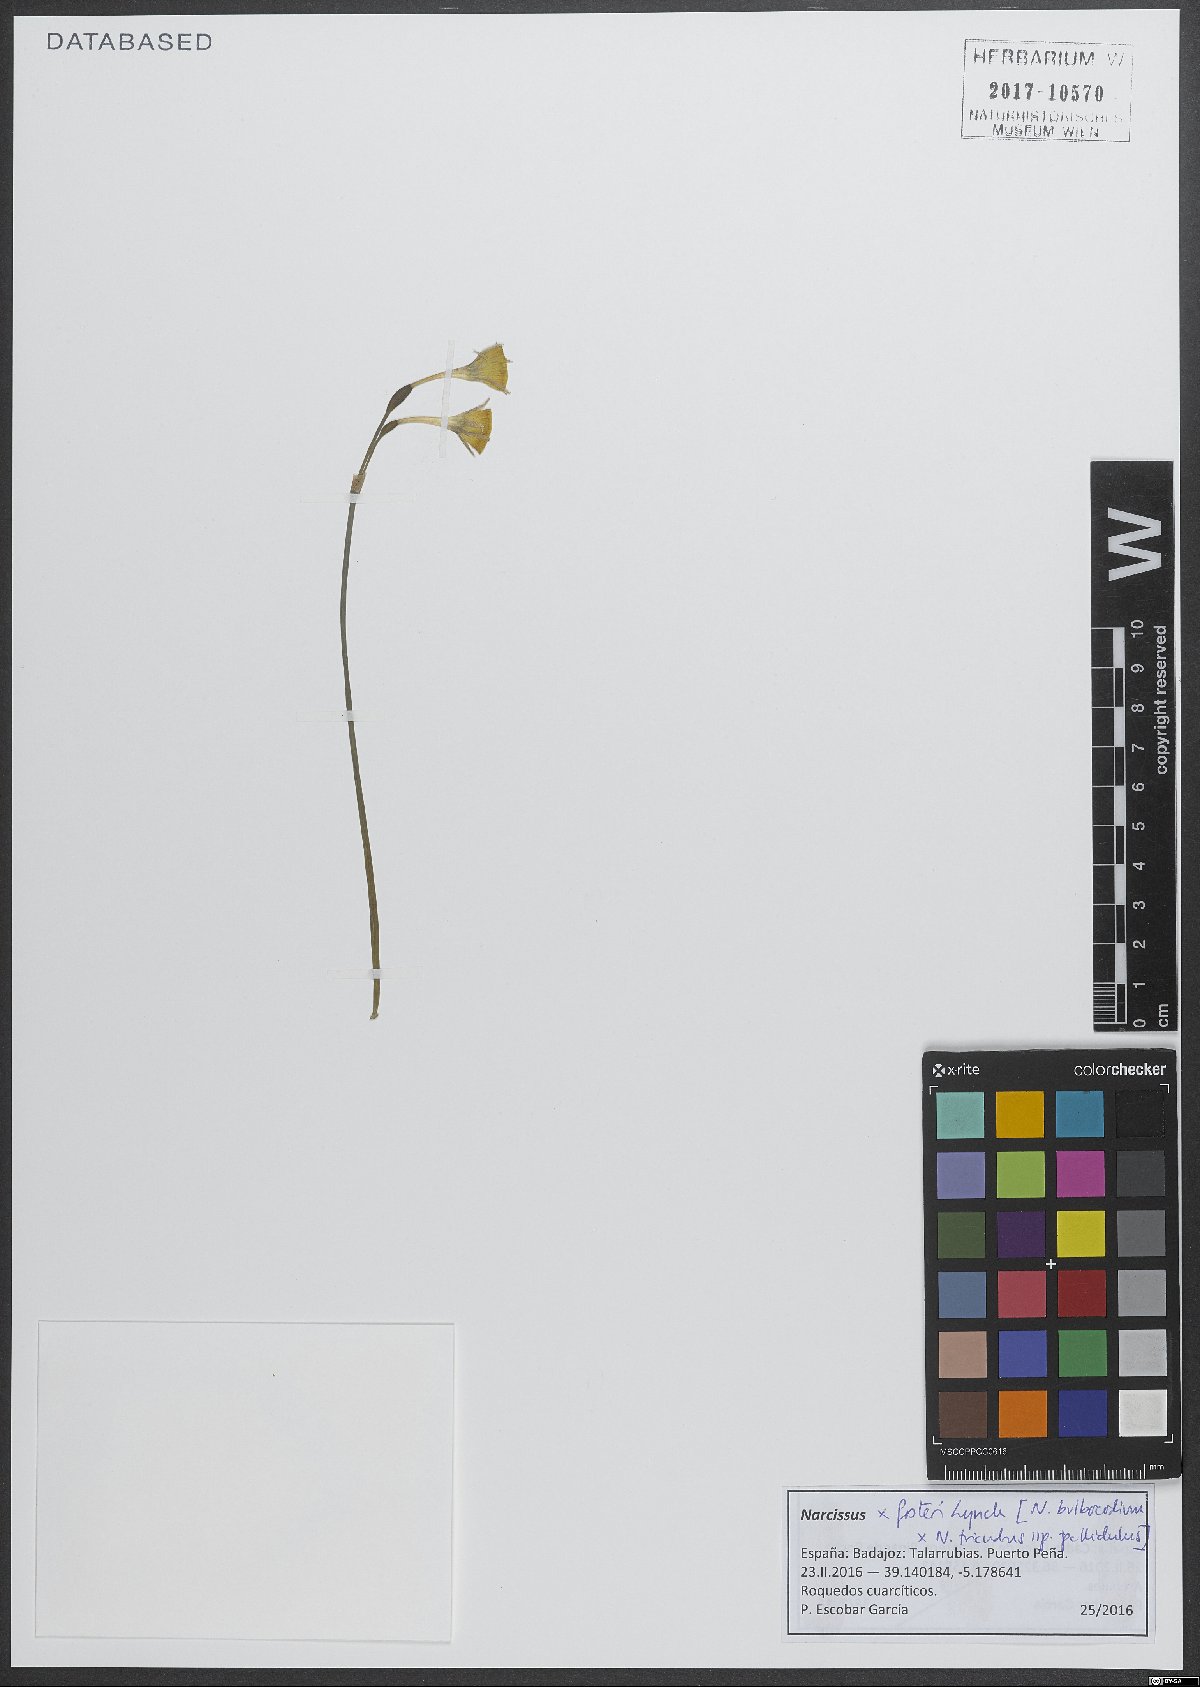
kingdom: Plantae
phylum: Tracheophyta
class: Liliopsida
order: Asparagales
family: Amaryllidaceae
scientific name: Amaryllidaceae
